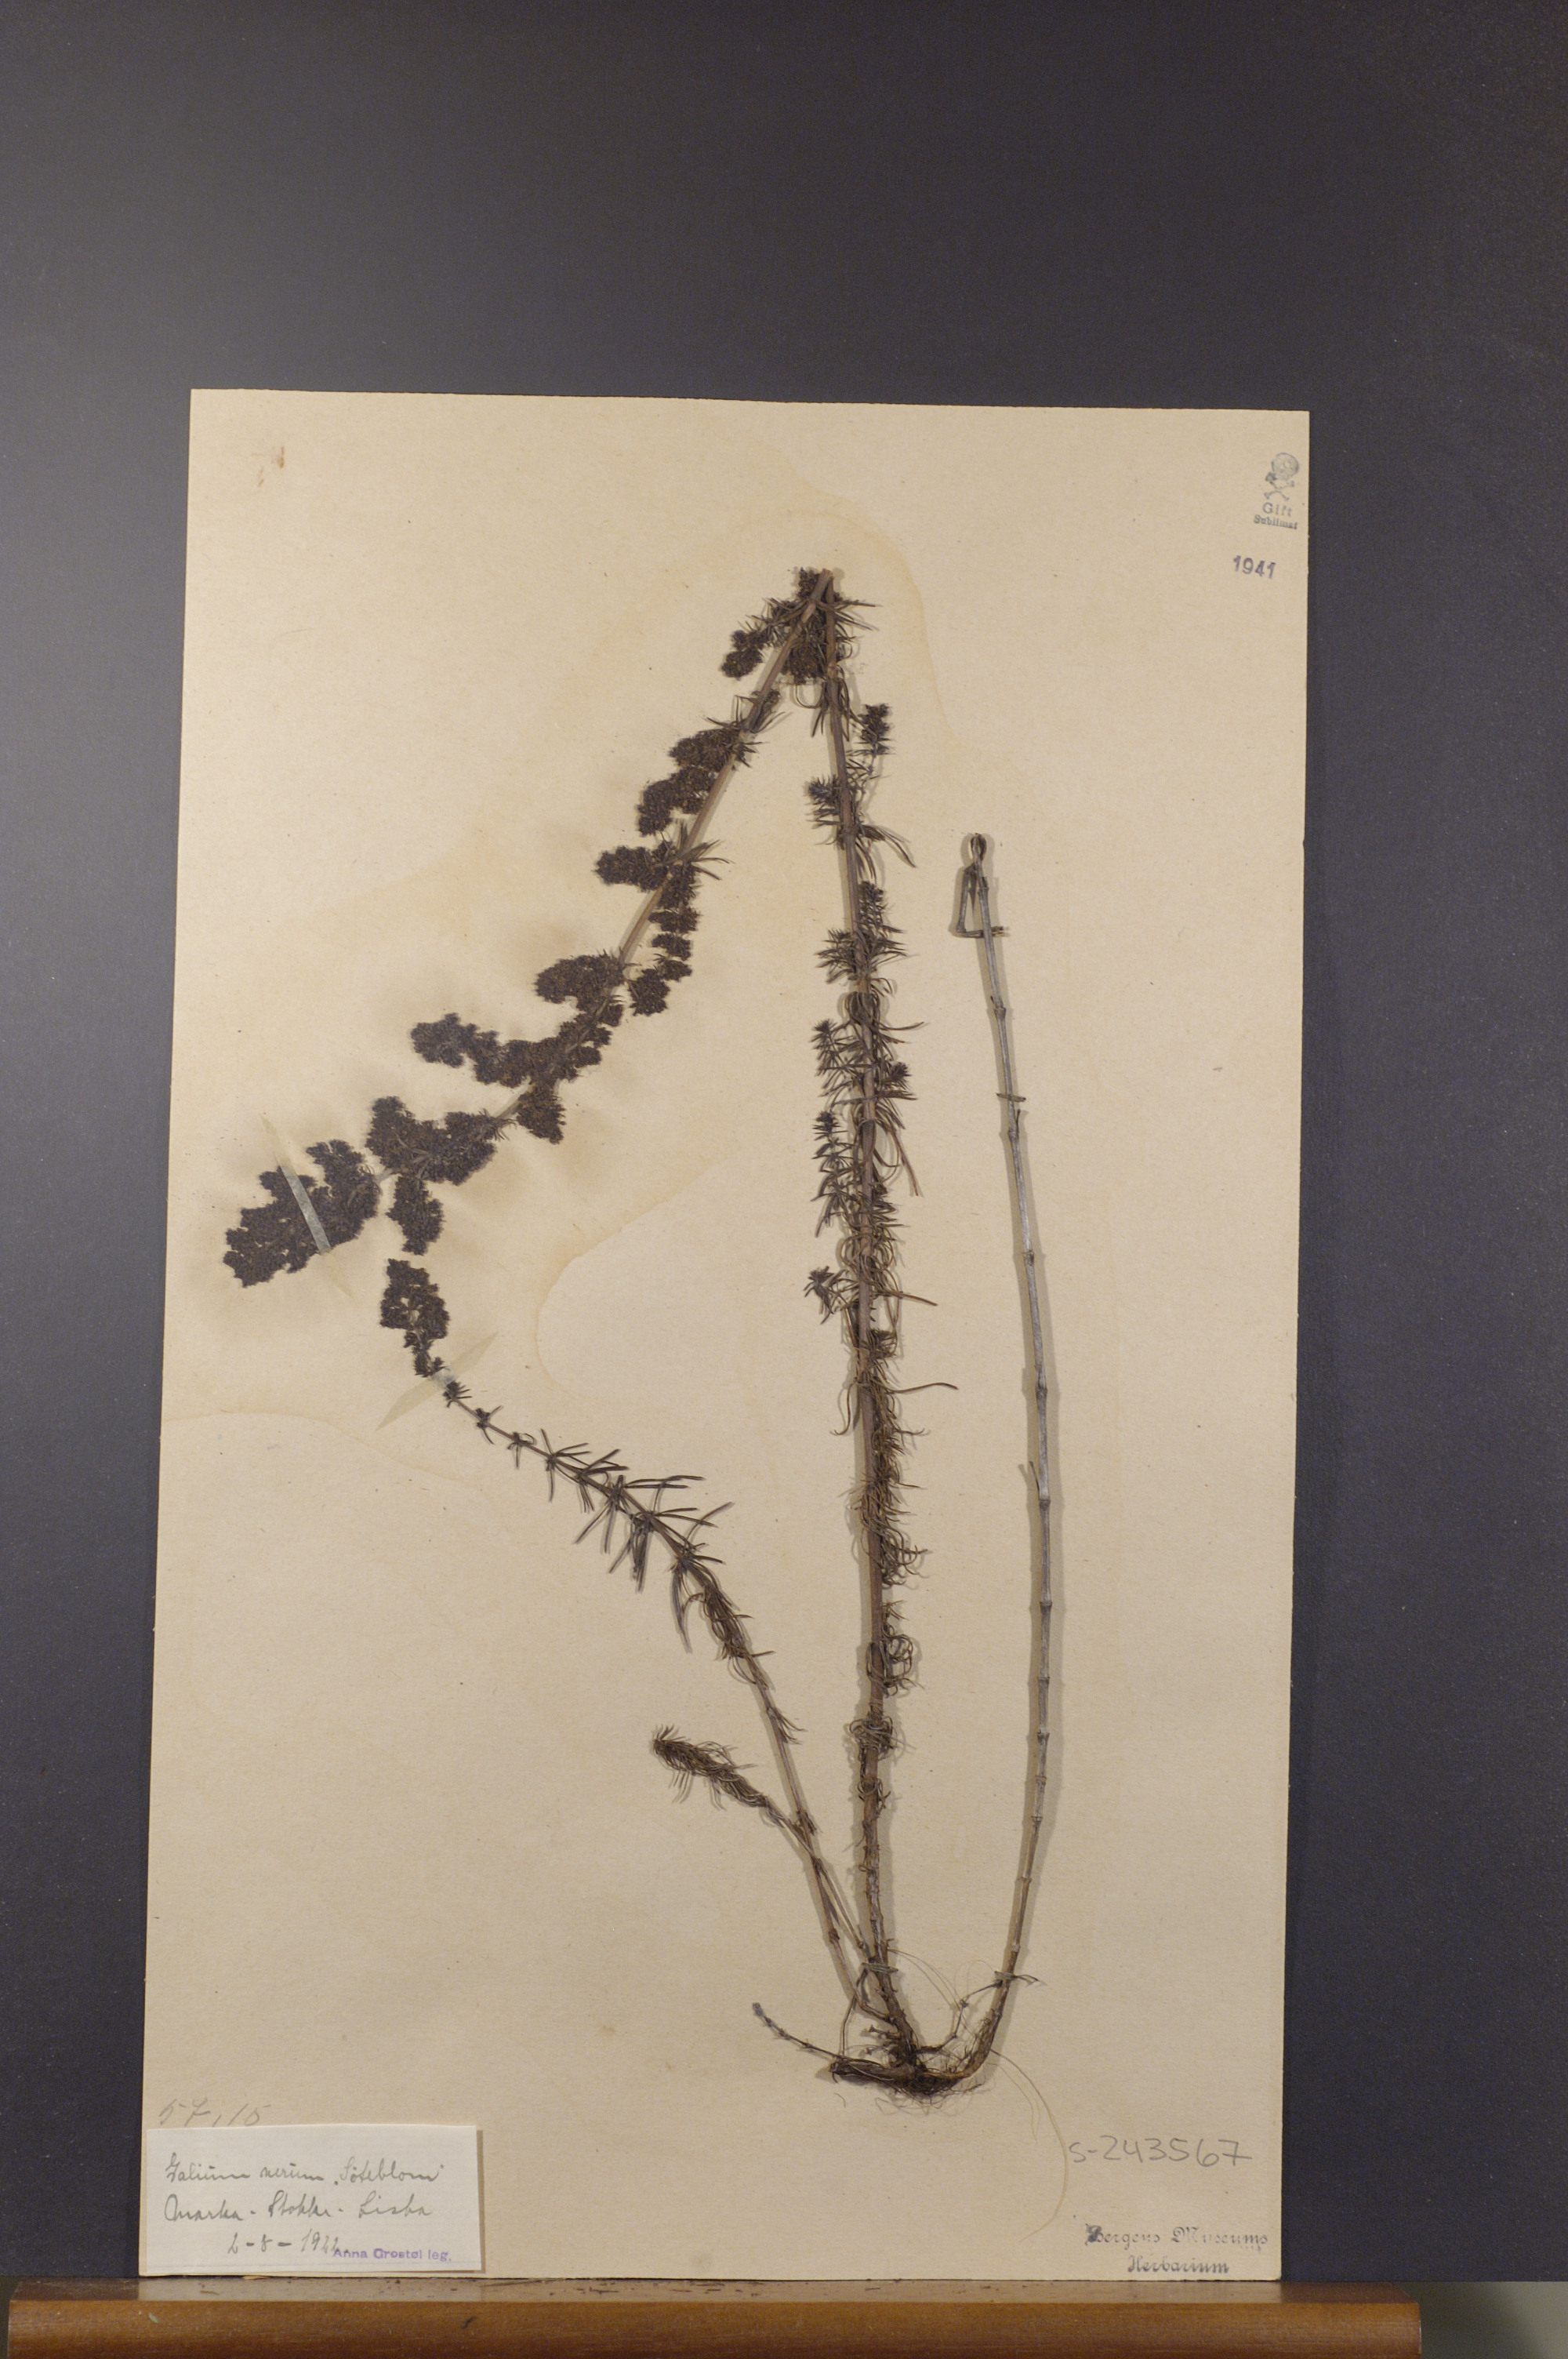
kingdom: Plantae
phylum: Tracheophyta
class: Magnoliopsida
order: Gentianales
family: Rubiaceae
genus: Galium
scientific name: Galium verum
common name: Lady's bedstraw
